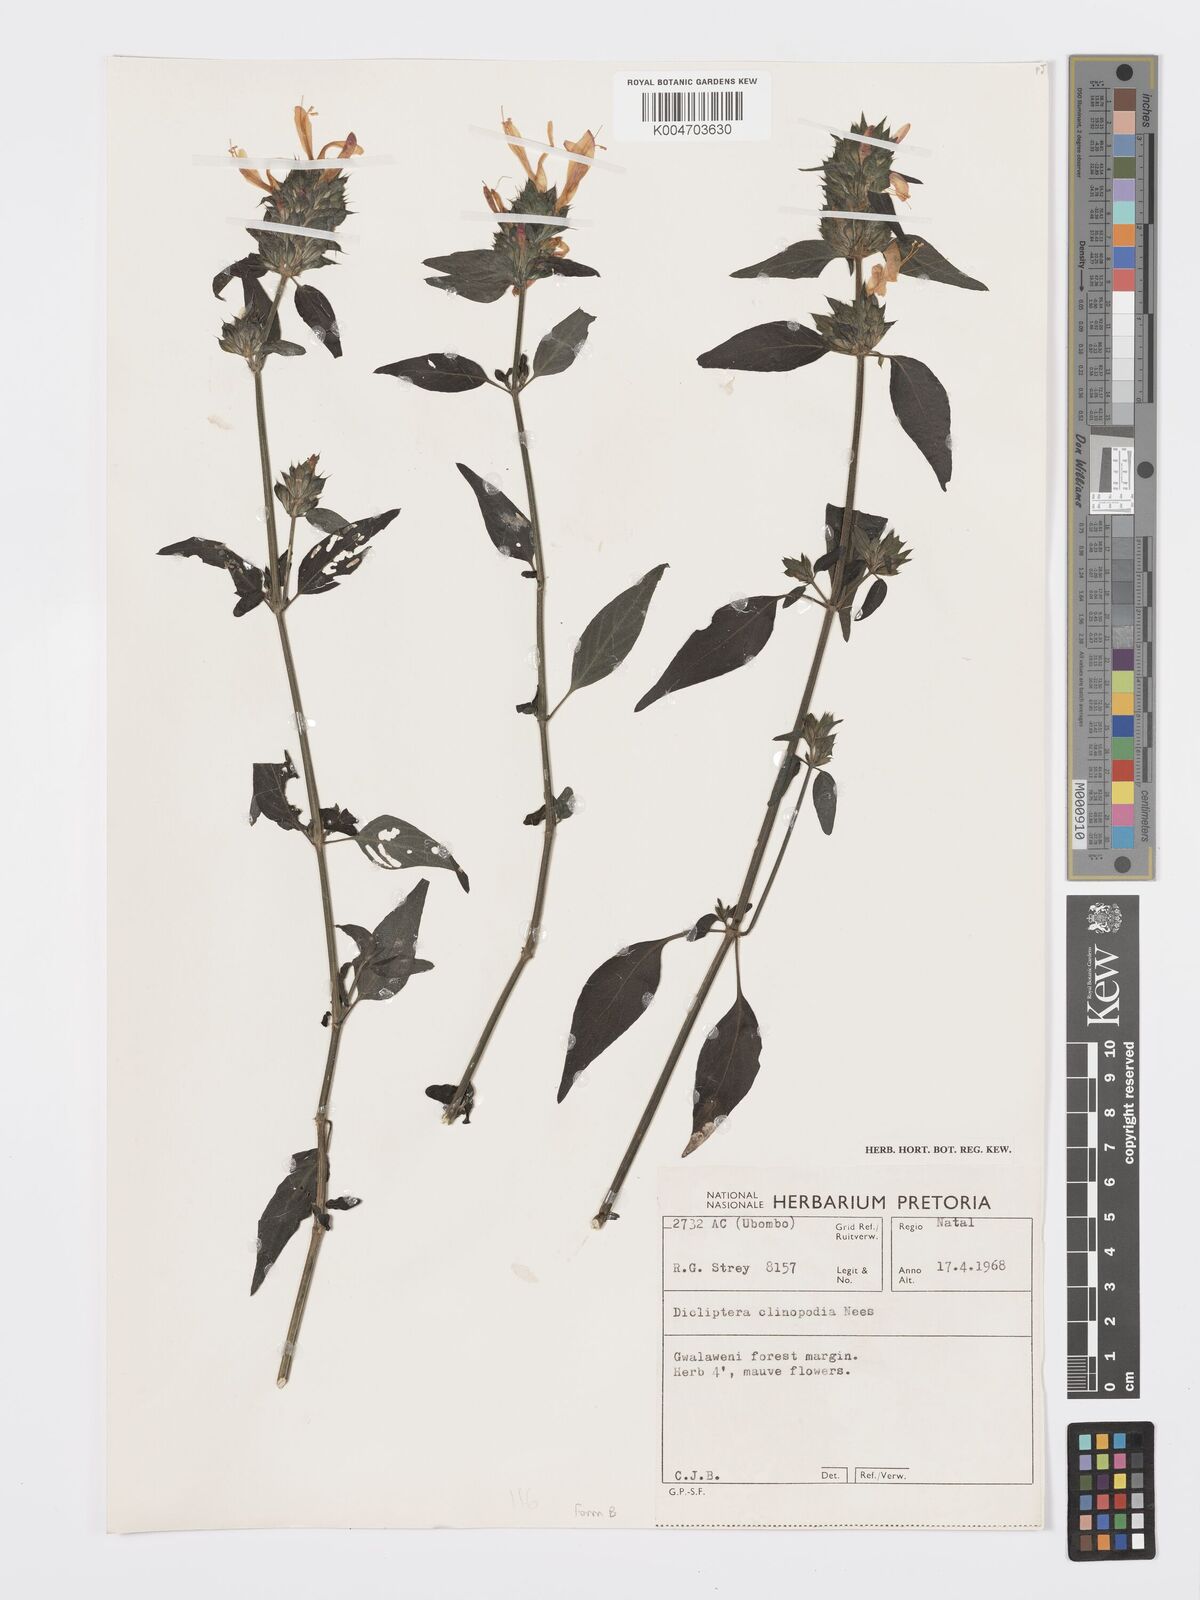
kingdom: Plantae
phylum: Tracheophyta
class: Magnoliopsida
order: Lamiales
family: Acanthaceae
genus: Dicliptera
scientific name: Dicliptera clinopodia
